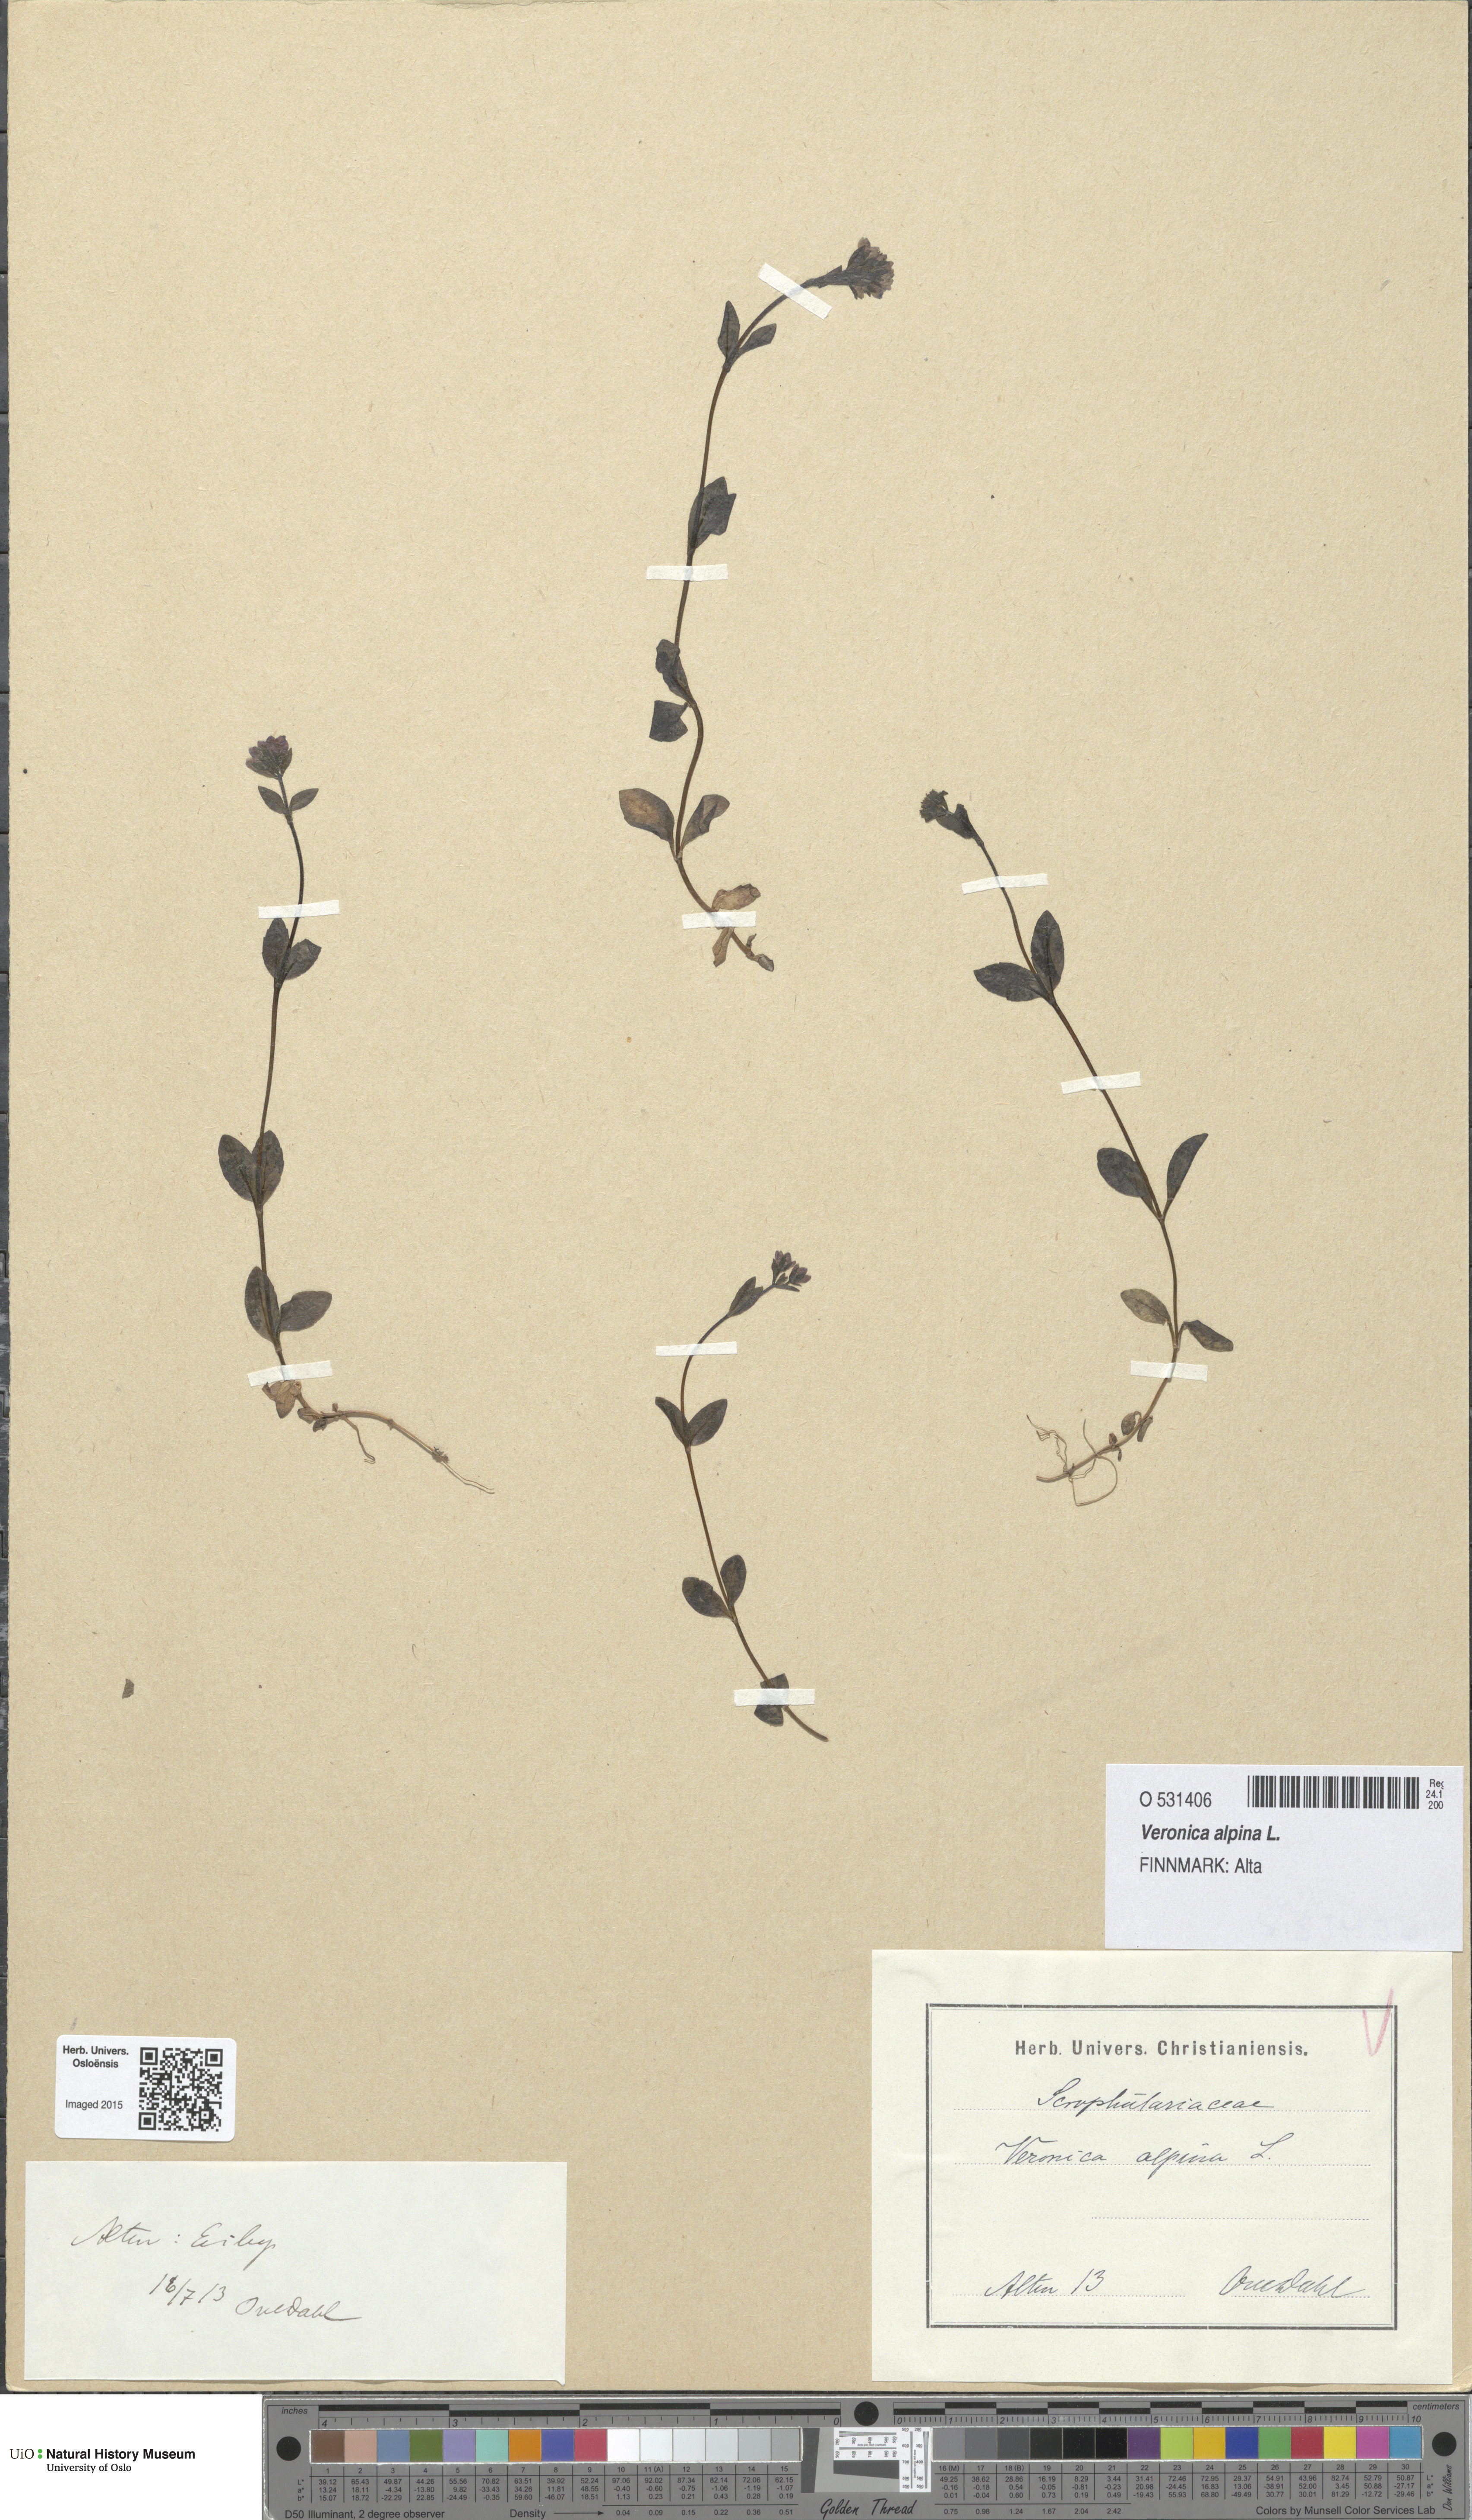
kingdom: Plantae
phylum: Tracheophyta
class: Magnoliopsida
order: Lamiales
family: Plantaginaceae
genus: Veronica
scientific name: Veronica alpina
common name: Alpine speedwell
